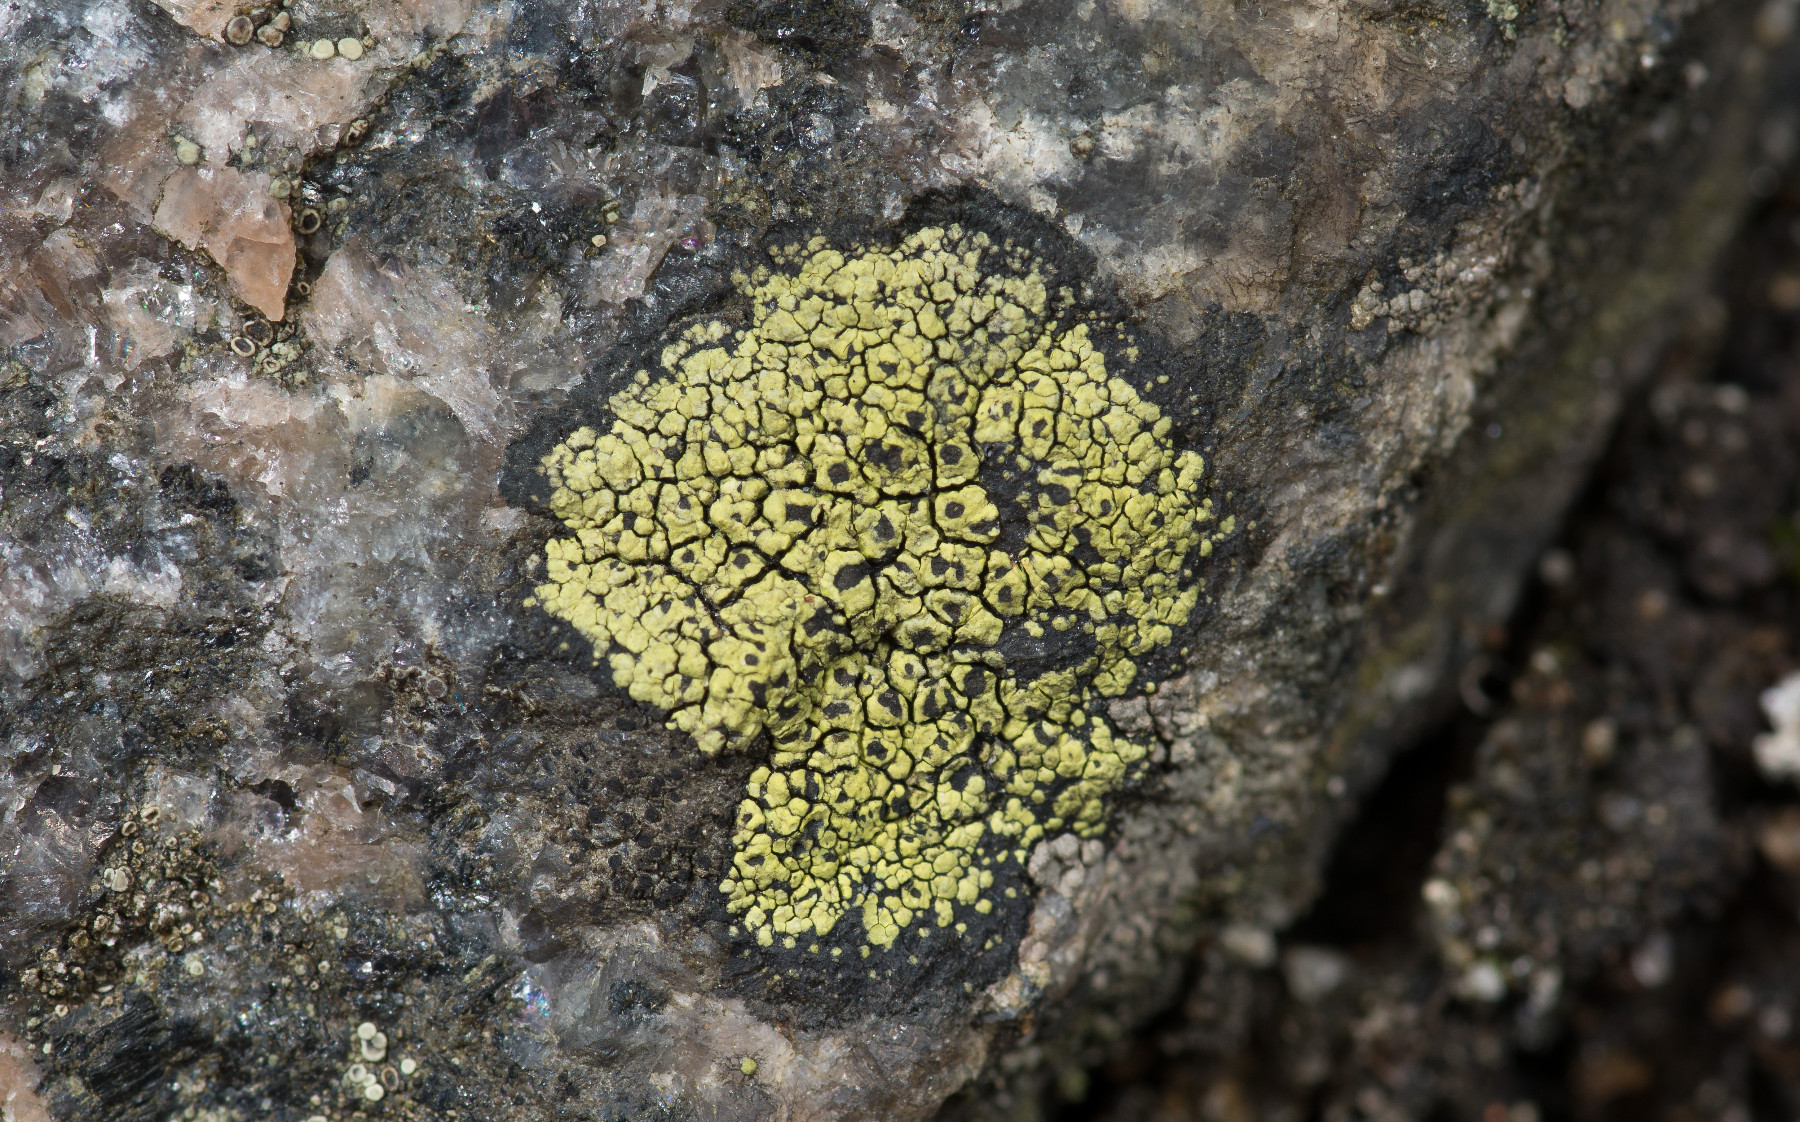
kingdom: Fungi
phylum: Ascomycota
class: Lecanoromycetes
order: Rhizocarpales
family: Rhizocarpaceae
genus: Rhizocarpon
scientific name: Rhizocarpon lecanorinum
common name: krave-landkortlav
